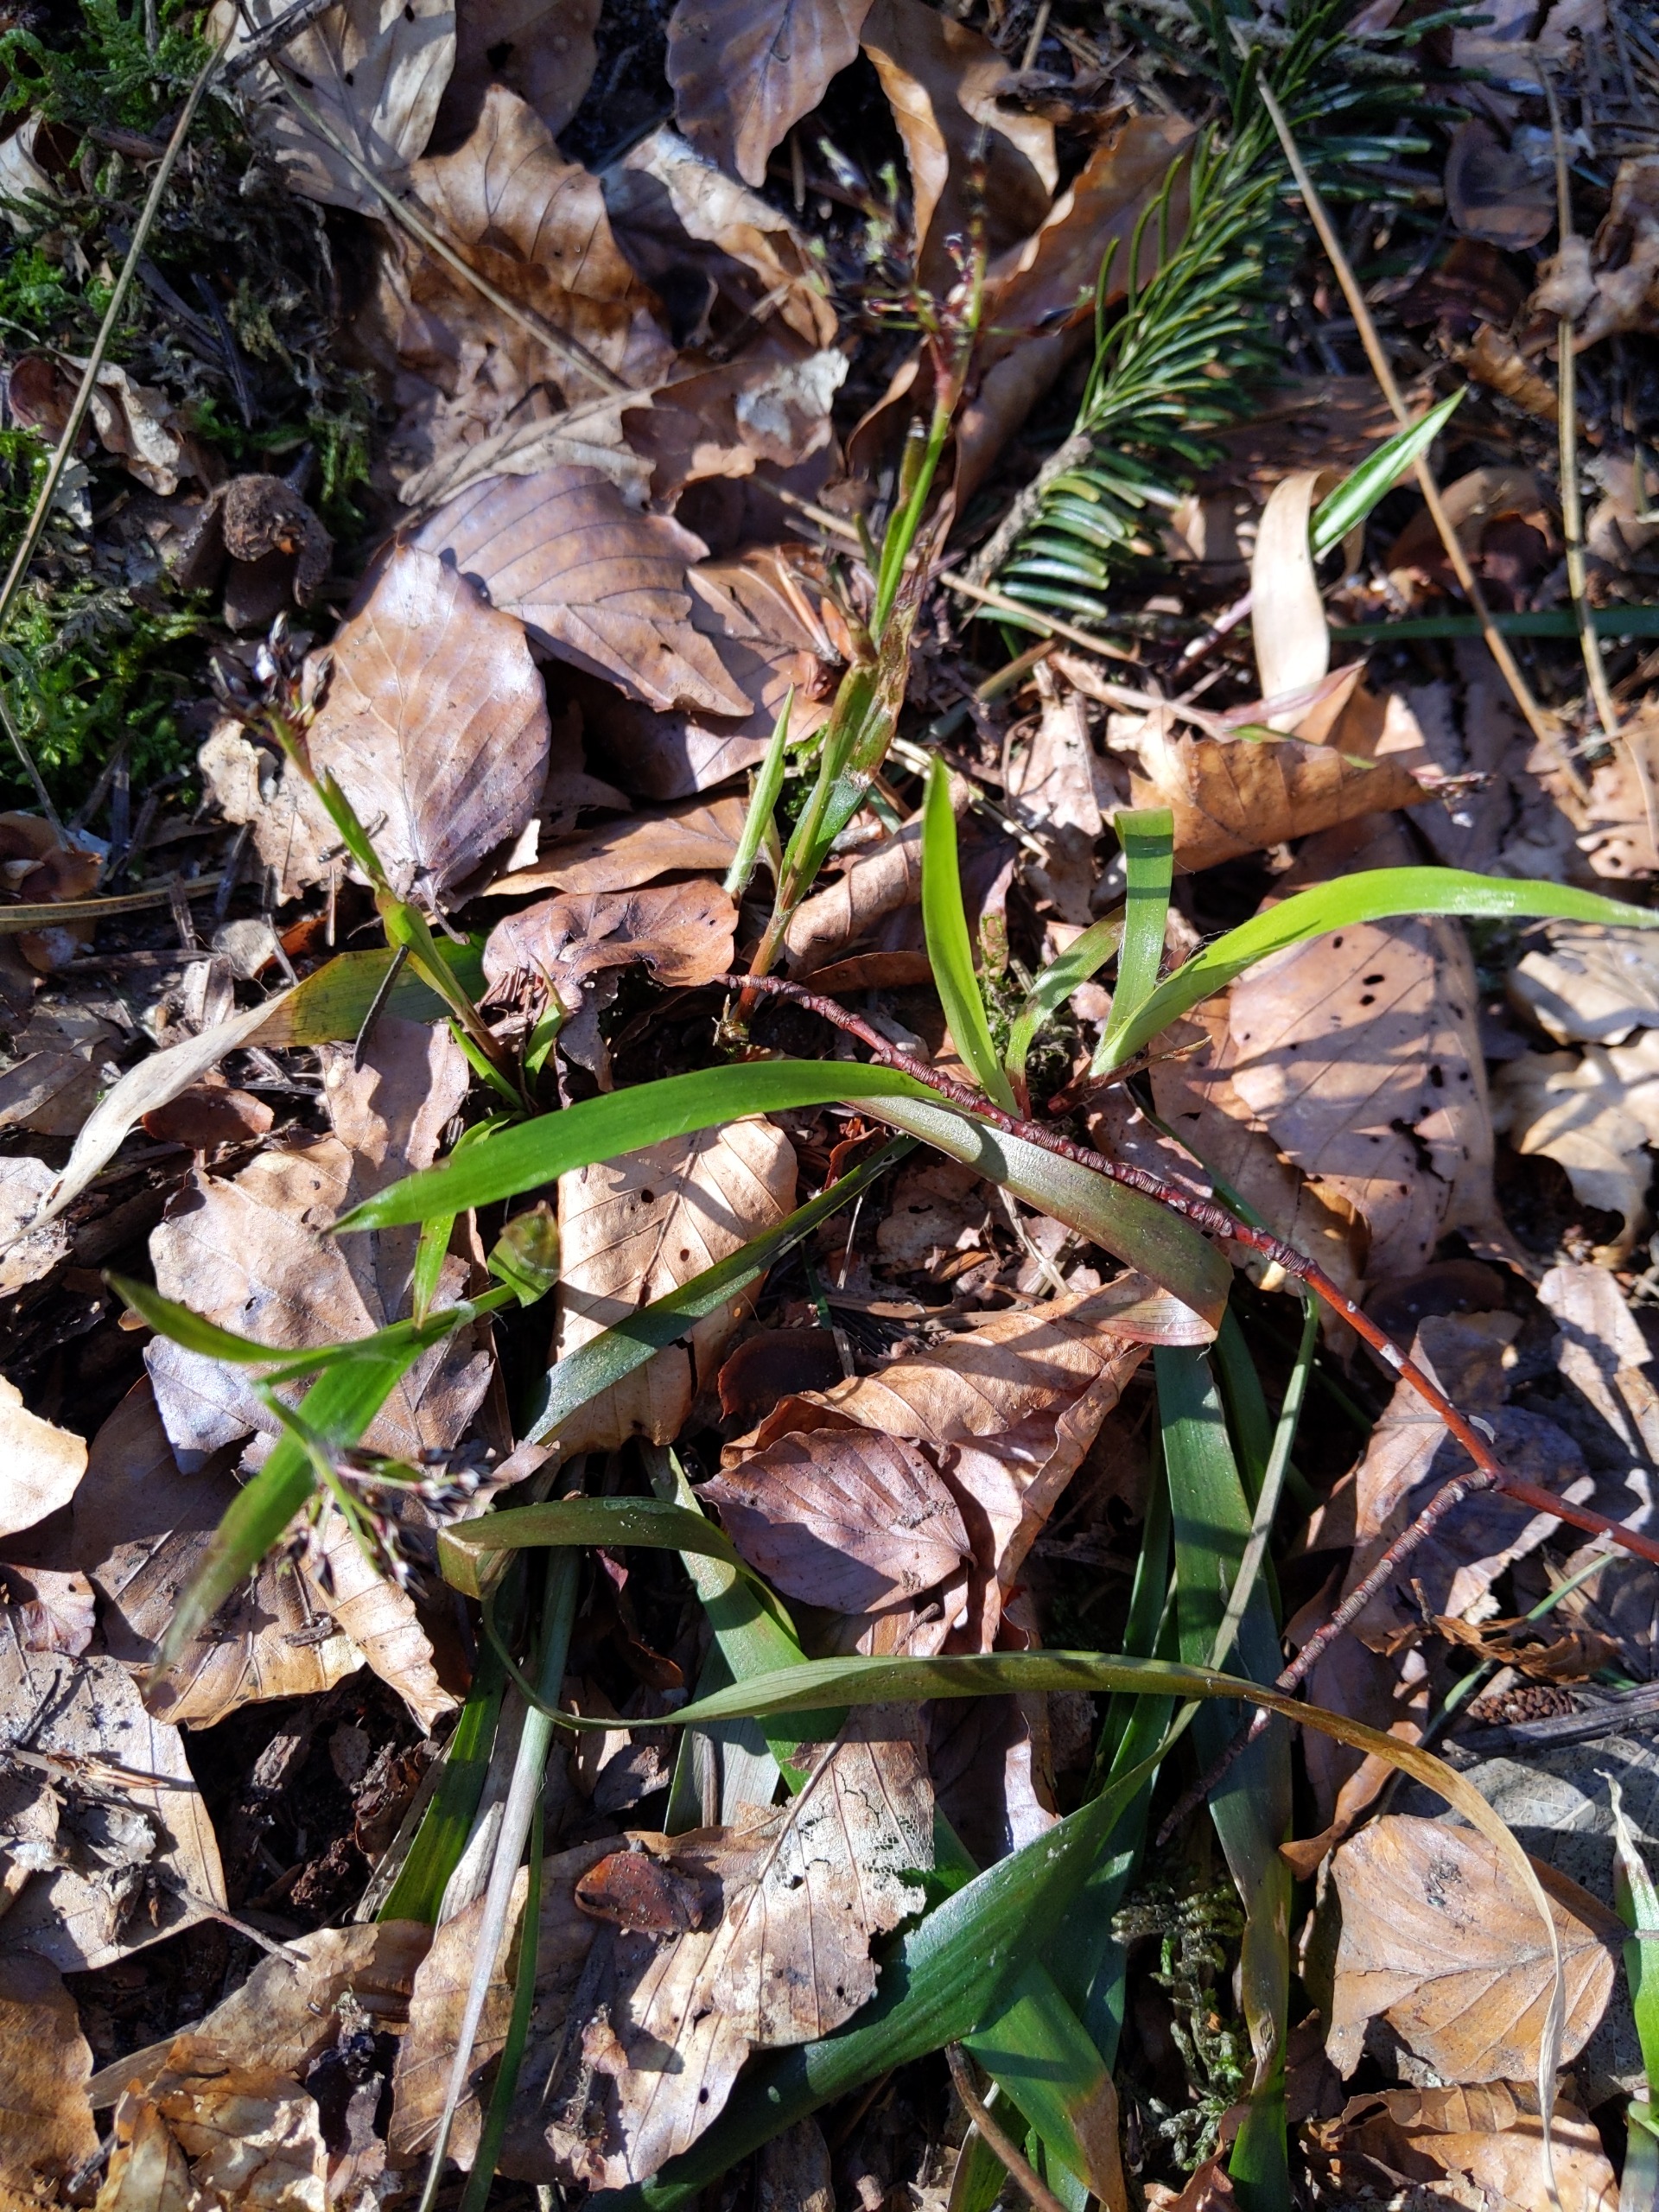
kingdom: Plantae
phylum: Tracheophyta
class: Liliopsida
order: Poales
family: Juncaceae
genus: Luzula
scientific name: Luzula pilosa
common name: Håret frytle
